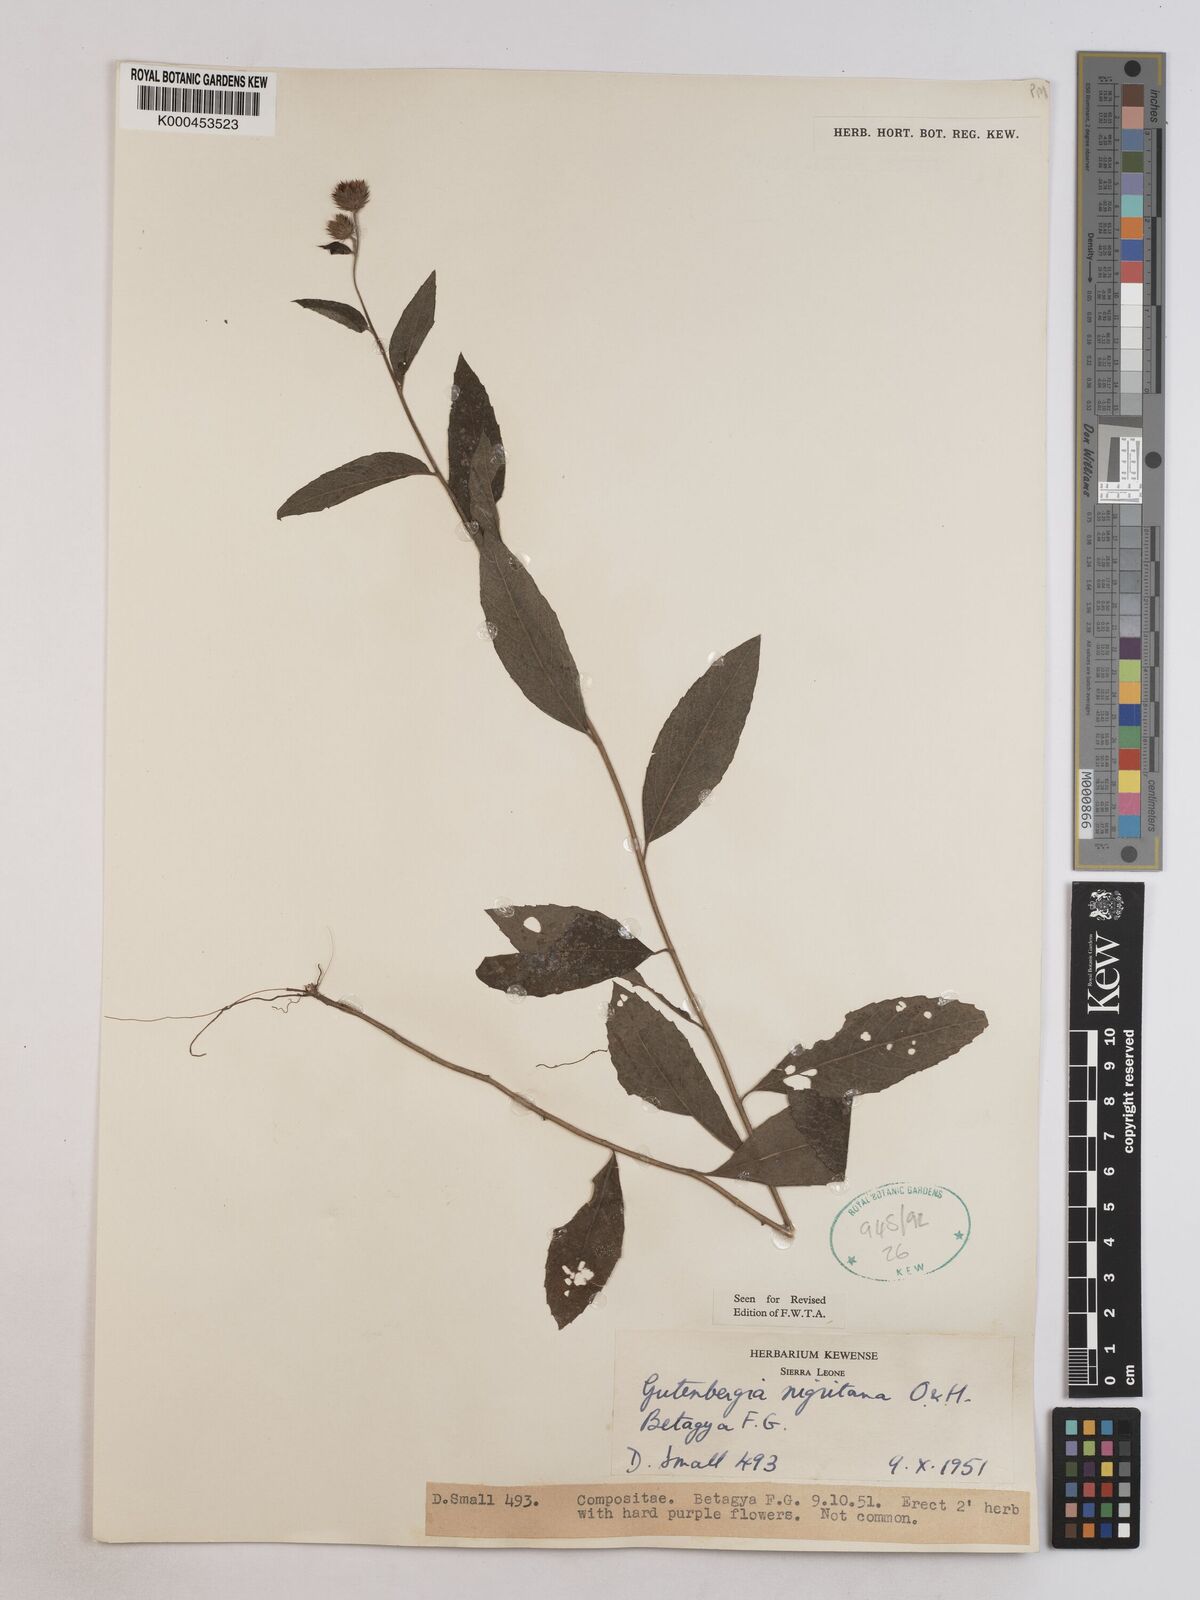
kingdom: Plantae
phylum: Tracheophyta
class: Magnoliopsida
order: Asterales
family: Asteraceae
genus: Kinghamia
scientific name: Kinghamia nigritana
